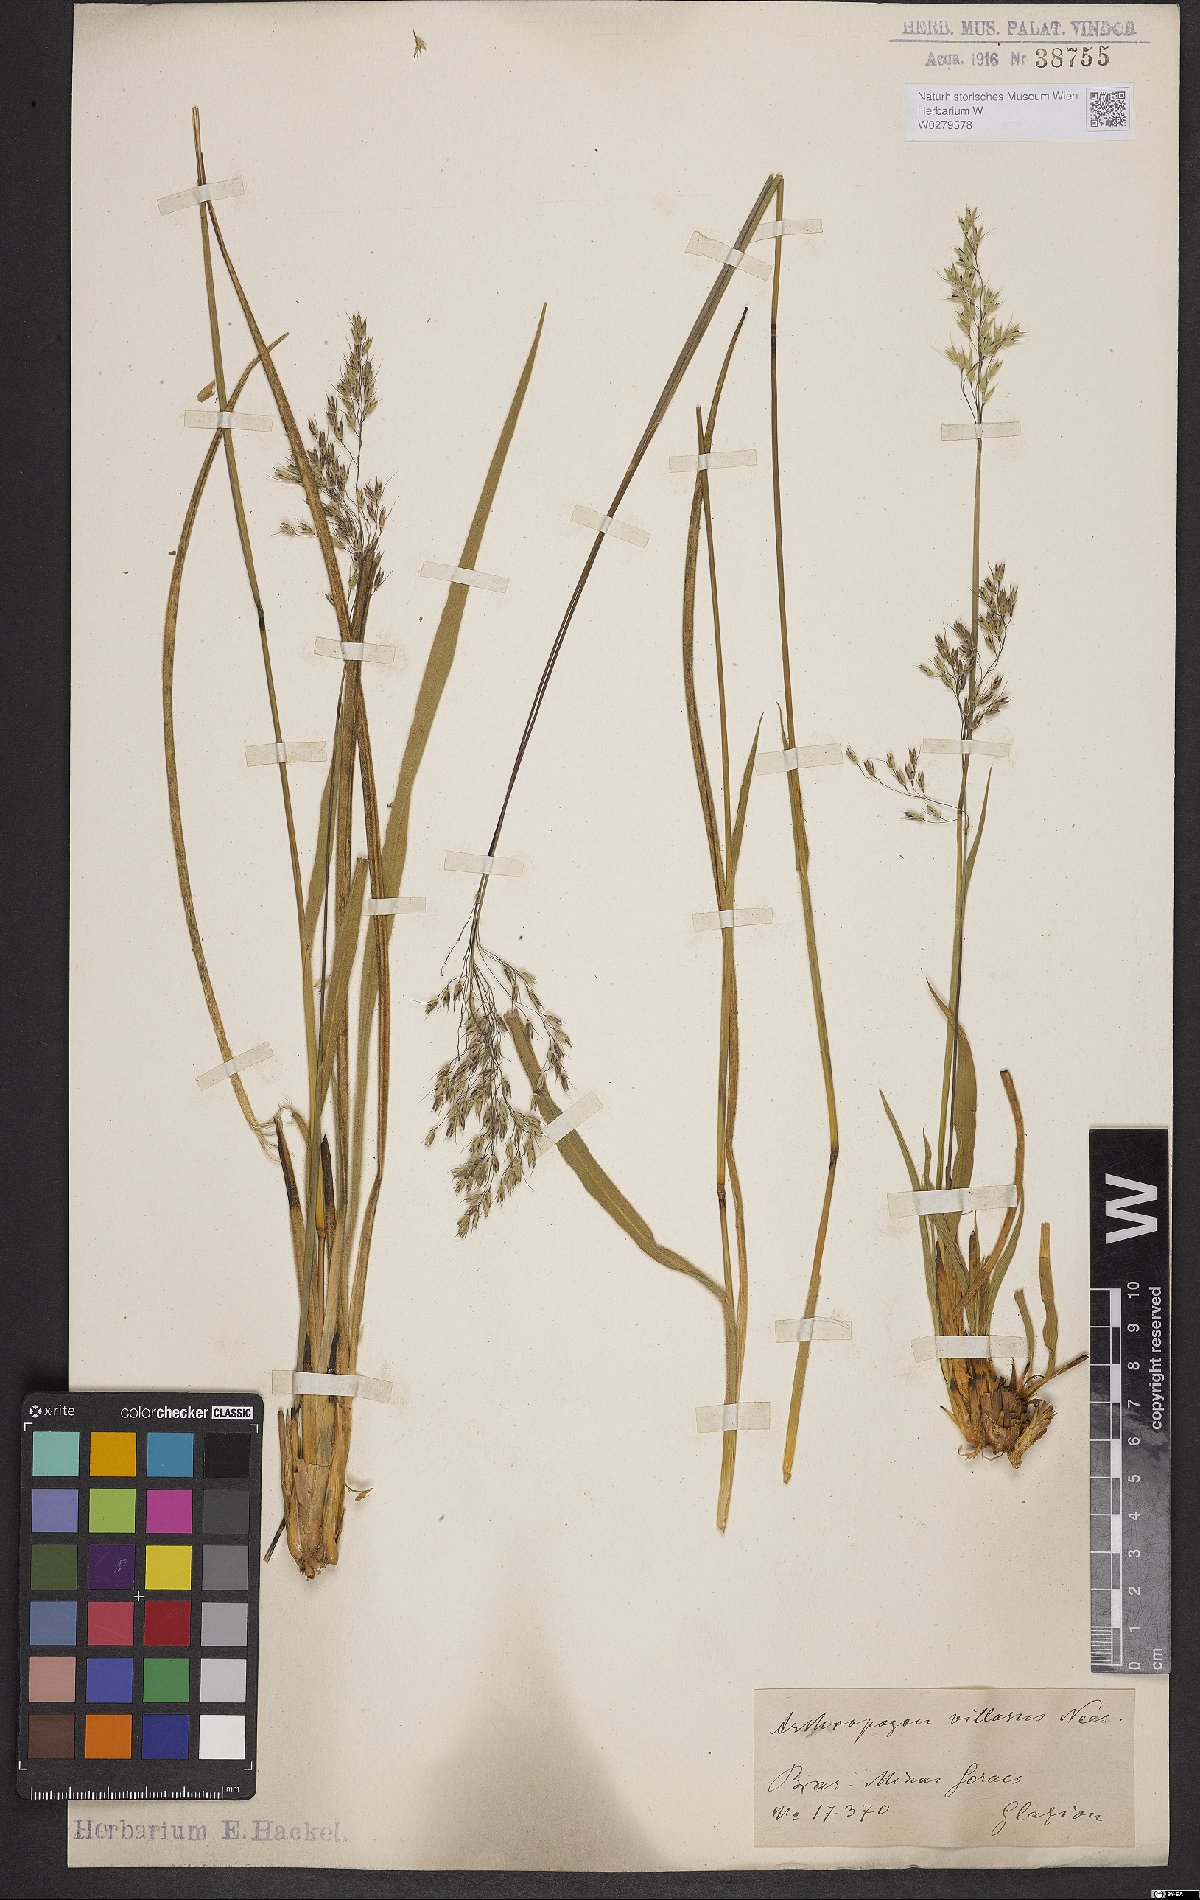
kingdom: Plantae
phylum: Tracheophyta
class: Liliopsida
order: Poales
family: Poaceae
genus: Arthropogon
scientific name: Arthropogon villosus
